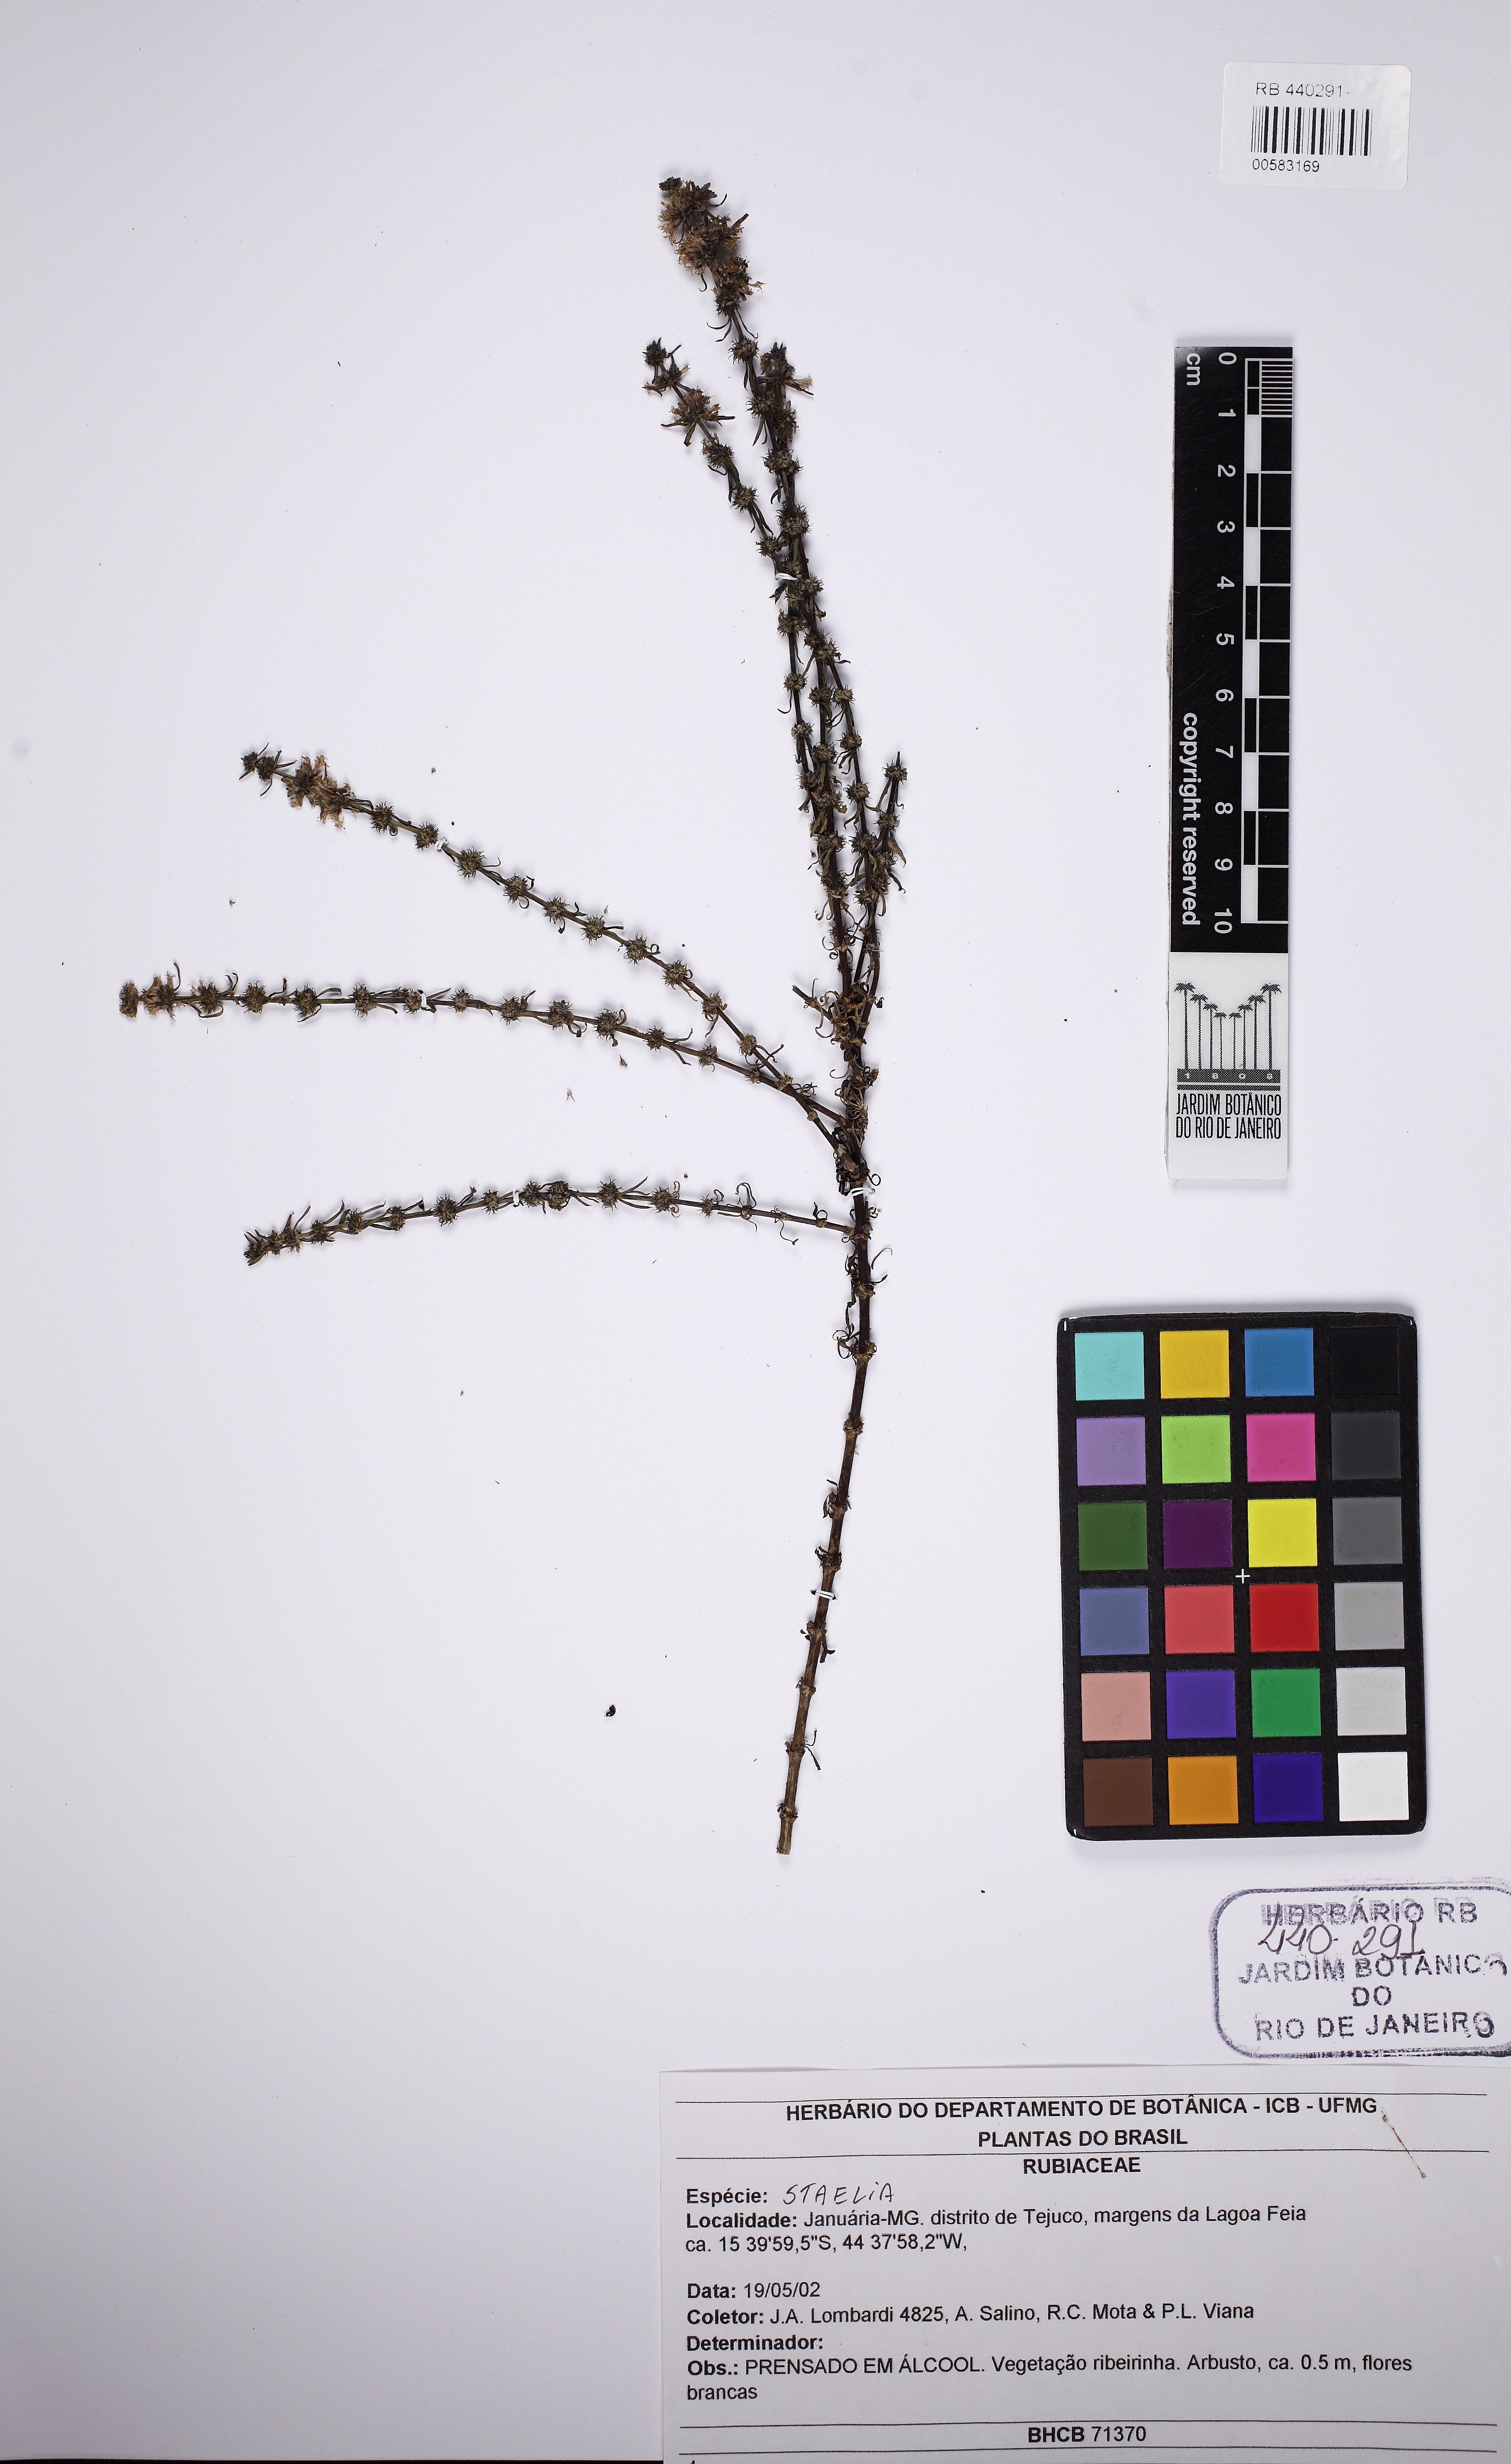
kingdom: Plantae
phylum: Tracheophyta
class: Magnoliopsida
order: Gentianales
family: Rubiaceae
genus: Staelia
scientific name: Staelia
